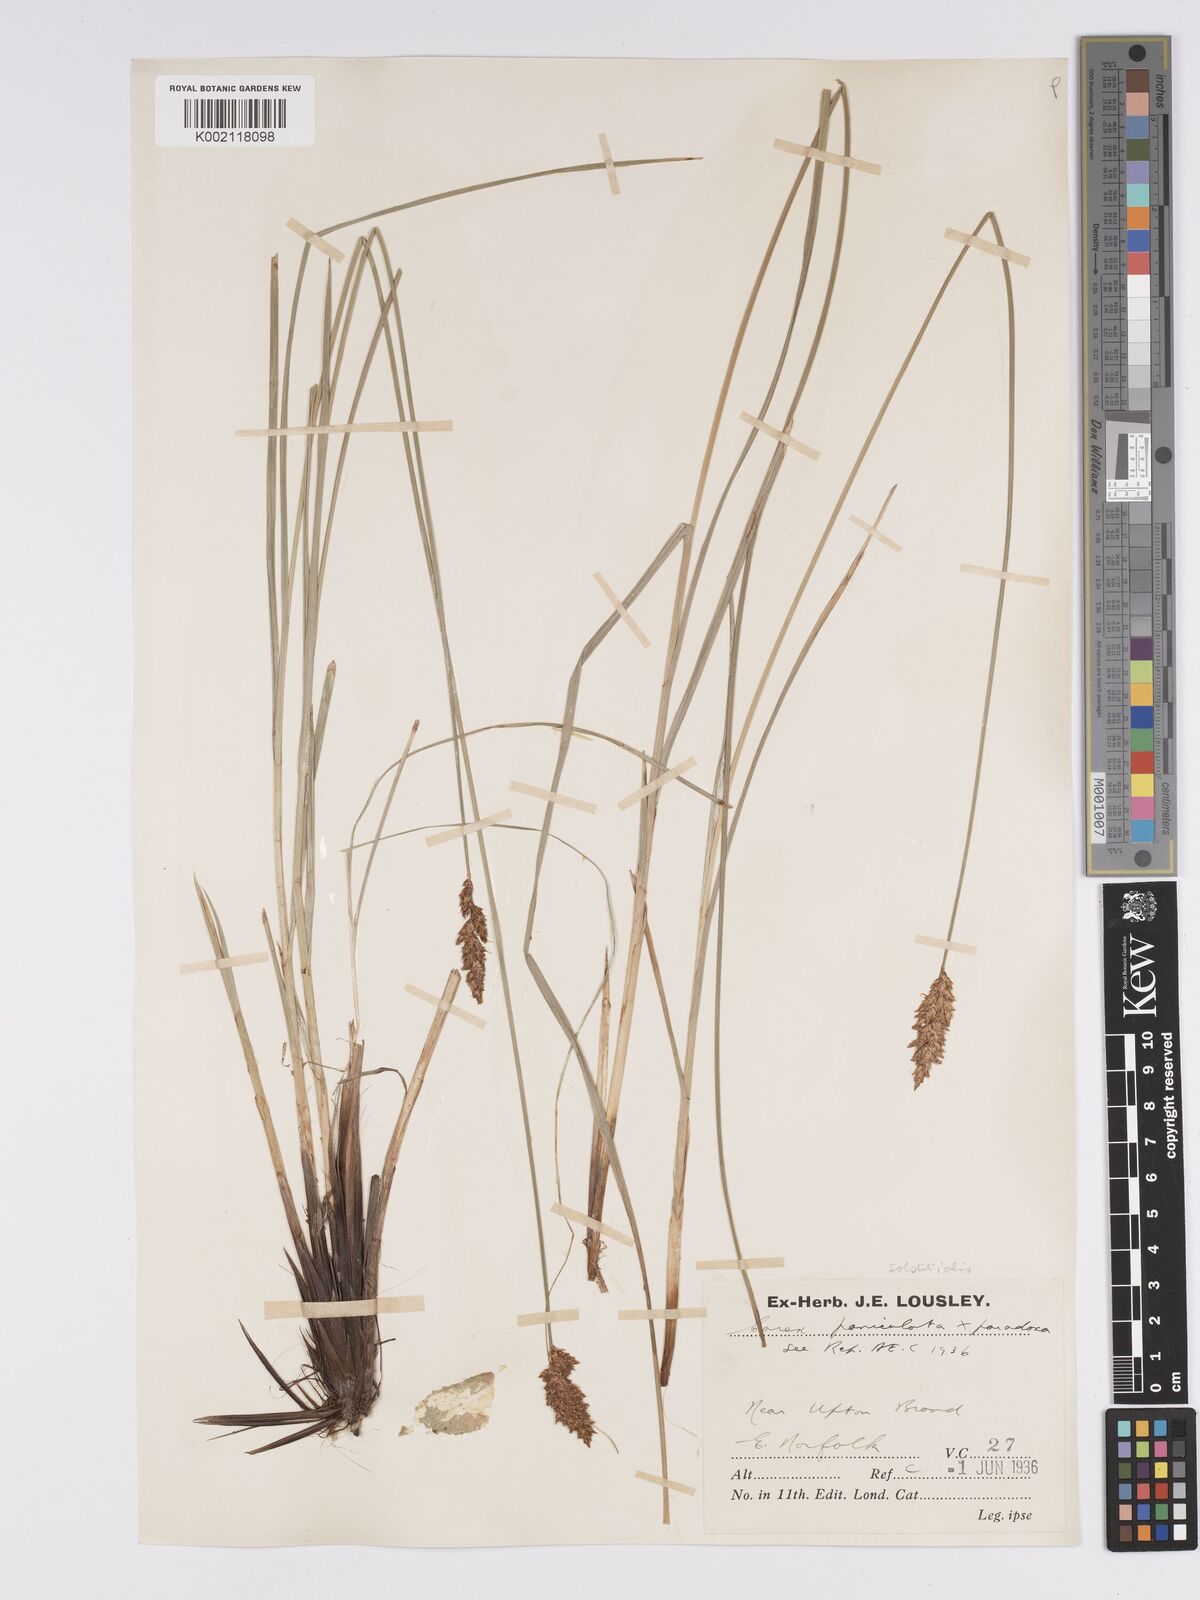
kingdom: Plantae
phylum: Tracheophyta
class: Liliopsida
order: Poales
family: Cyperaceae
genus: Carex
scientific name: Carex appropinquata
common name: Fibrous tussock-sedge
